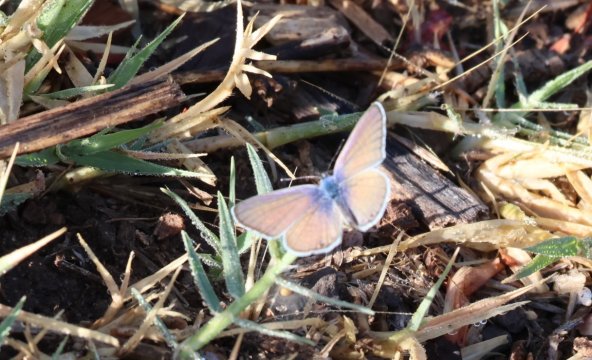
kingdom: Animalia
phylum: Arthropoda
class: Insecta
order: Lepidoptera
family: Lycaenidae
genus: Echinargus
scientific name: Echinargus isola
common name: Reakirt's Blue
